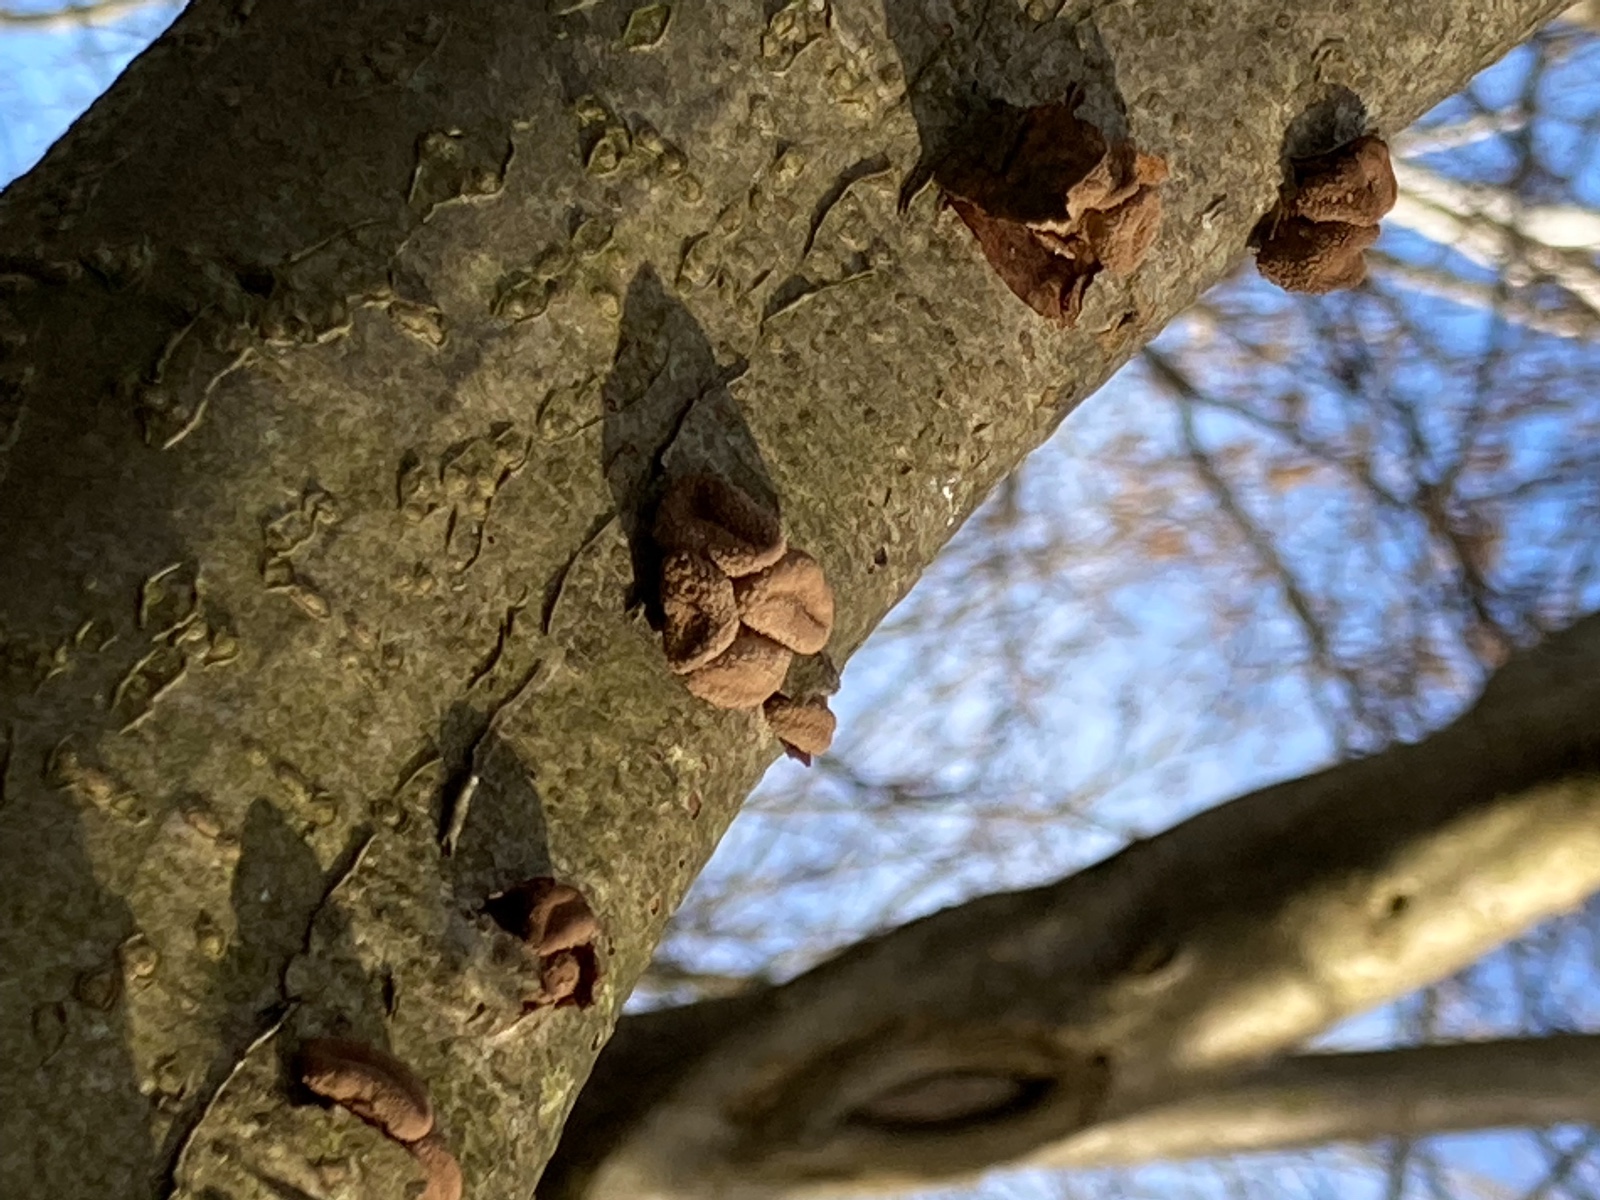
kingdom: Fungi
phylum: Ascomycota
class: Leotiomycetes
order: Helotiales
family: Cenangiaceae
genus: Encoelia
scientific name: Encoelia furfuracea
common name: hassel-læderskive
